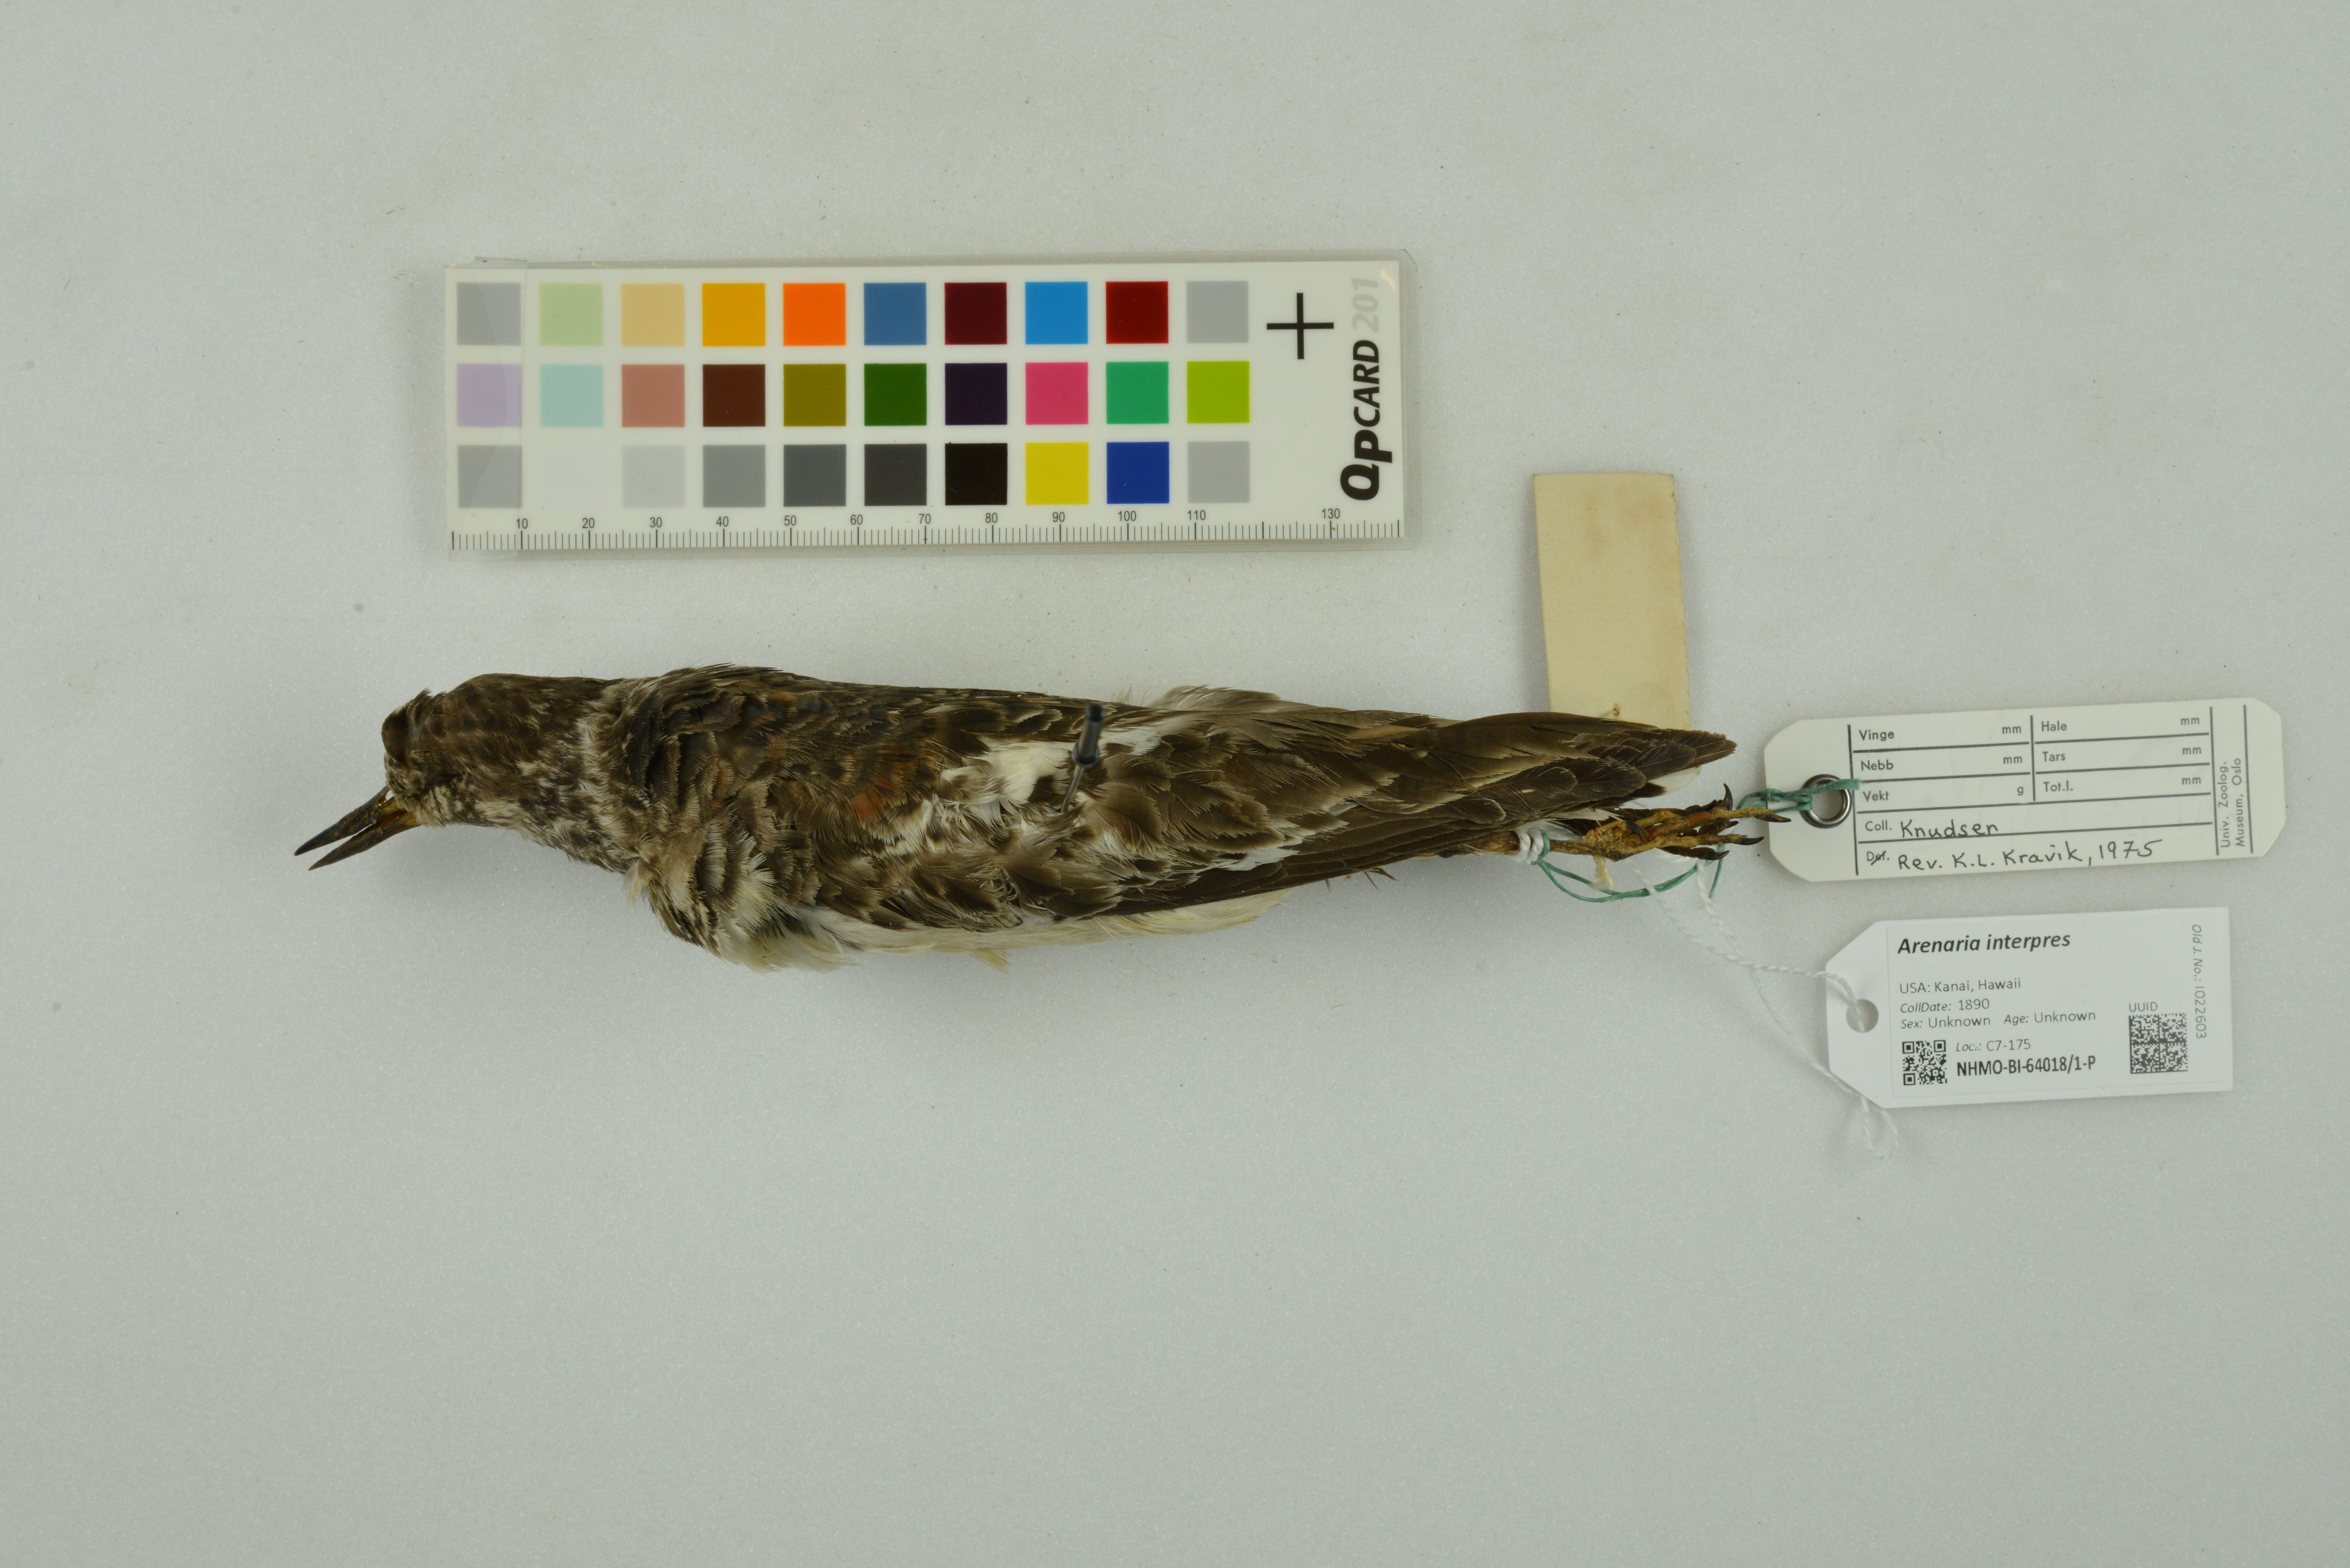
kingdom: Animalia
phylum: Chordata
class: Aves
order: Charadriiformes
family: Scolopacidae
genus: Arenaria
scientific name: Arenaria interpres
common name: Ruddy turnstone
